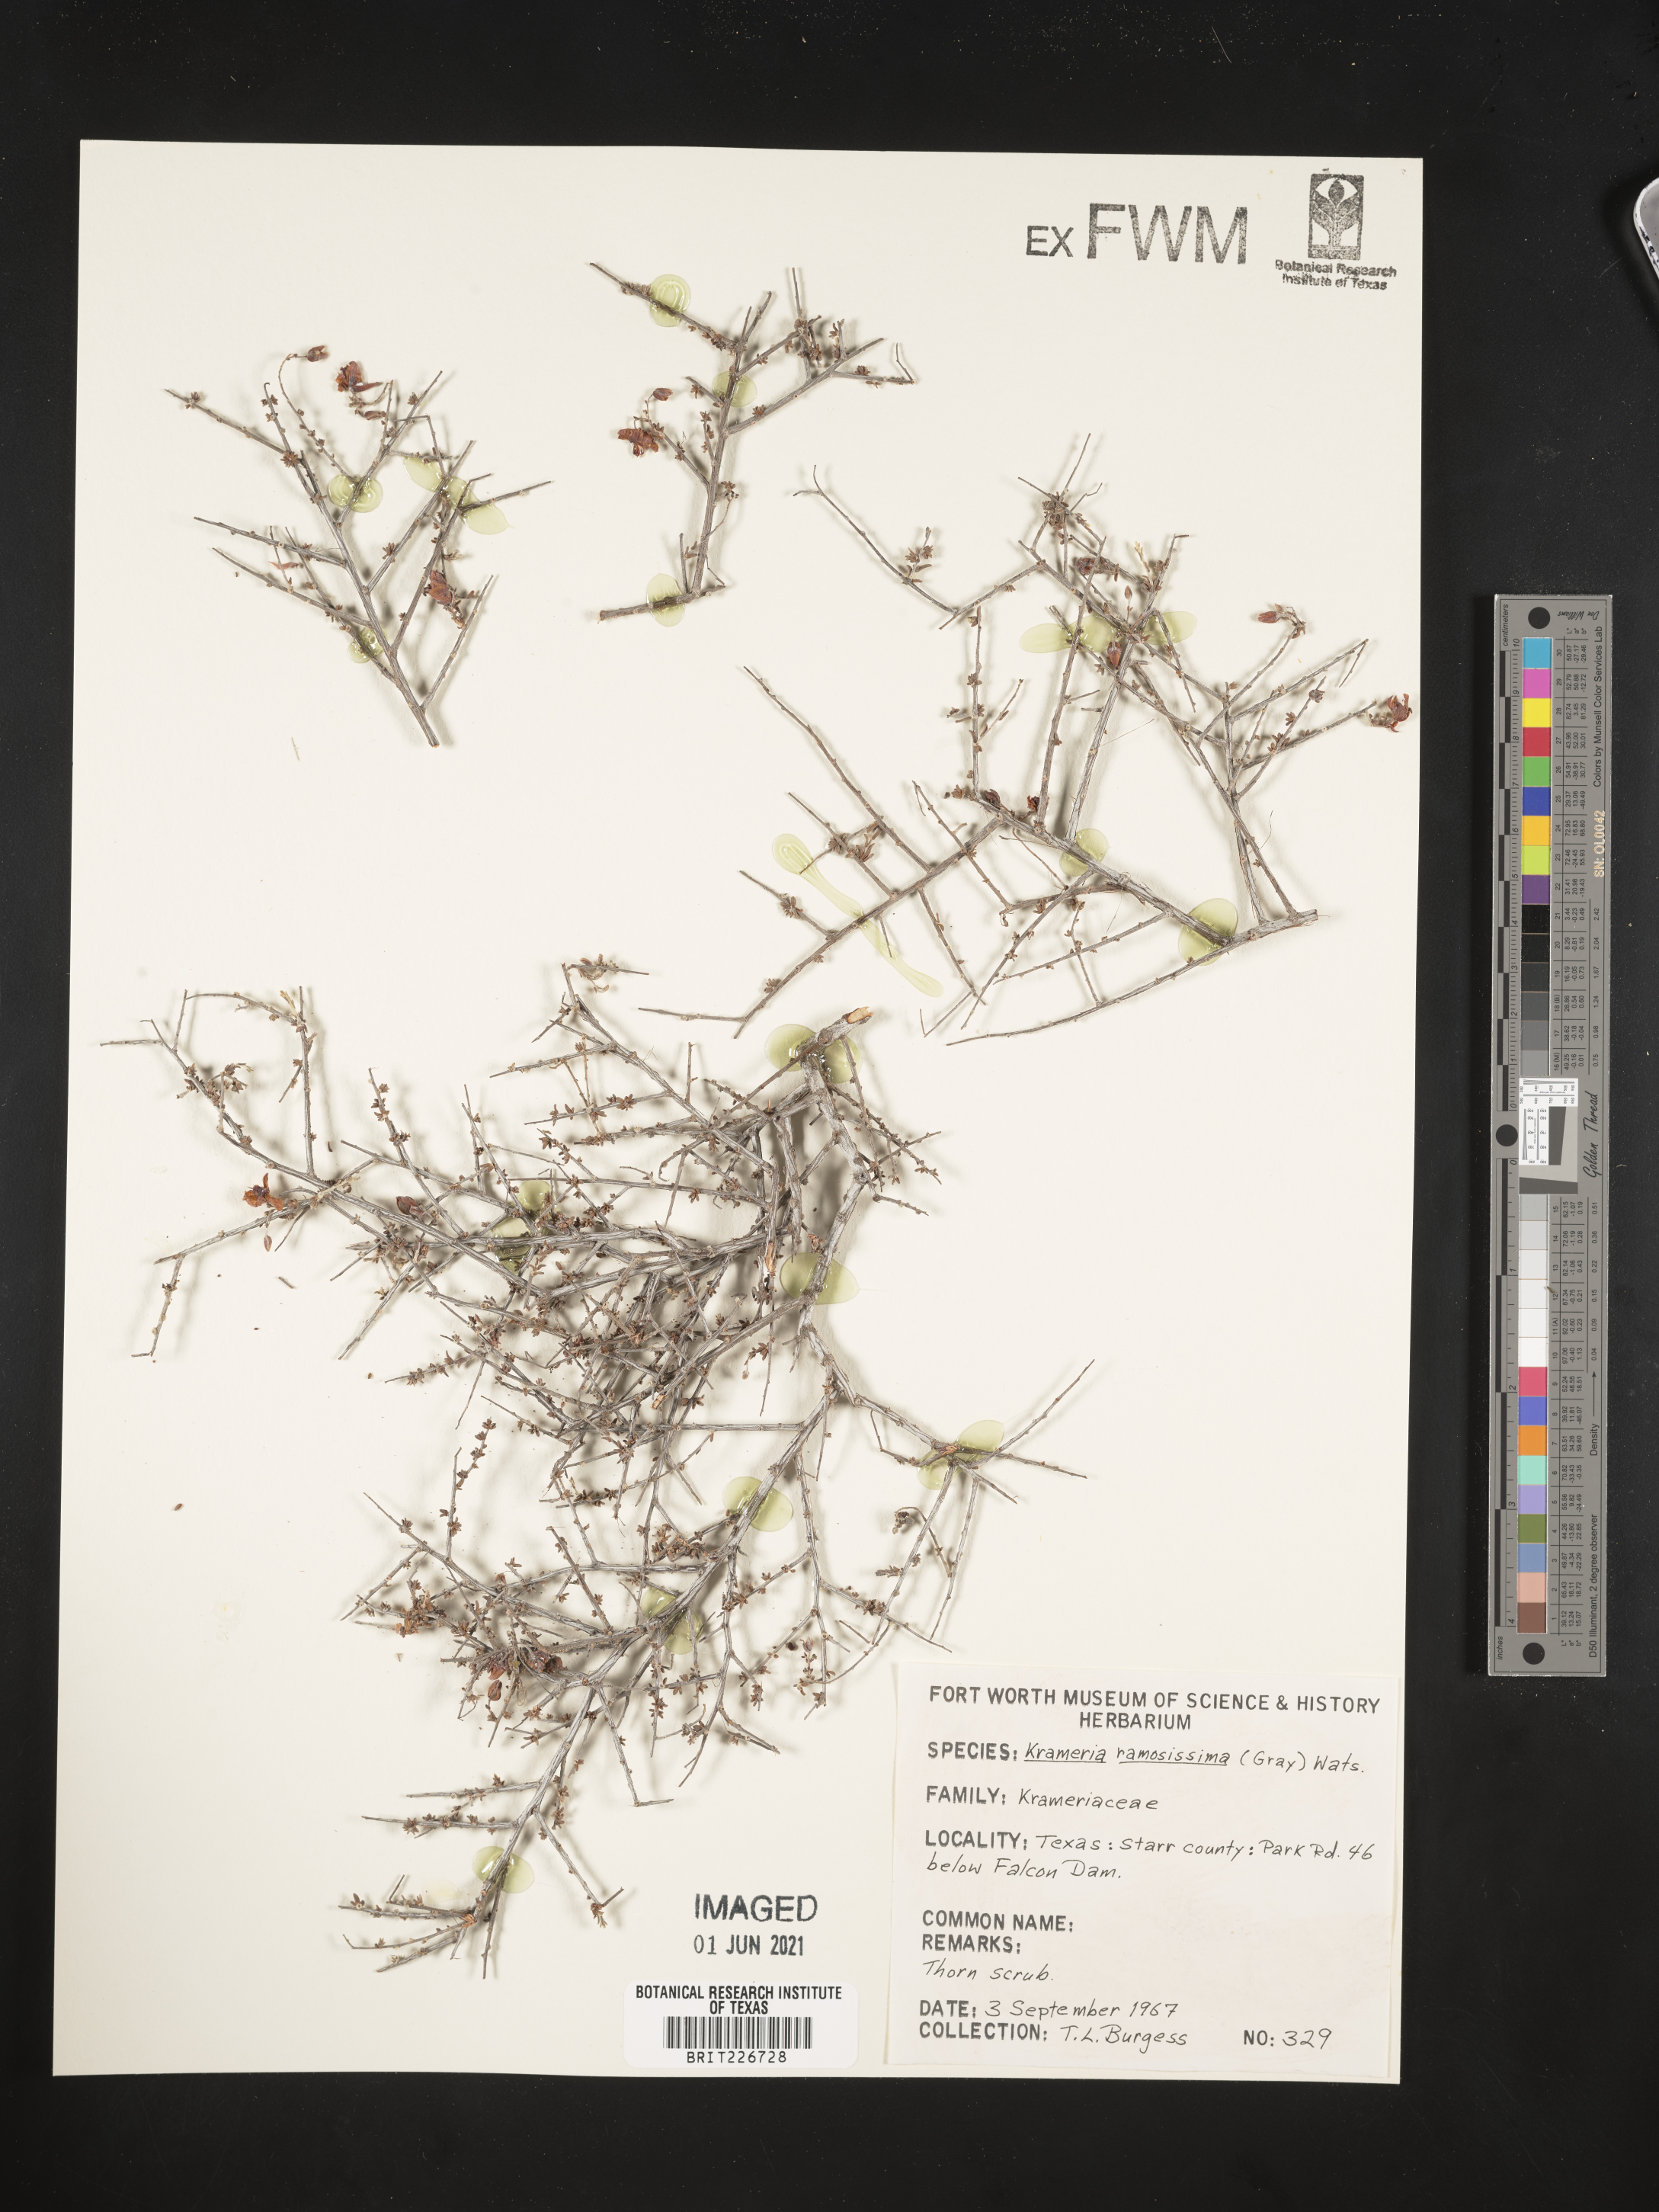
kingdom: Plantae
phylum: Tracheophyta
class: Magnoliopsida
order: Zygophyllales
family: Krameriaceae
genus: Krameria
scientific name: Krameria ramosissima
